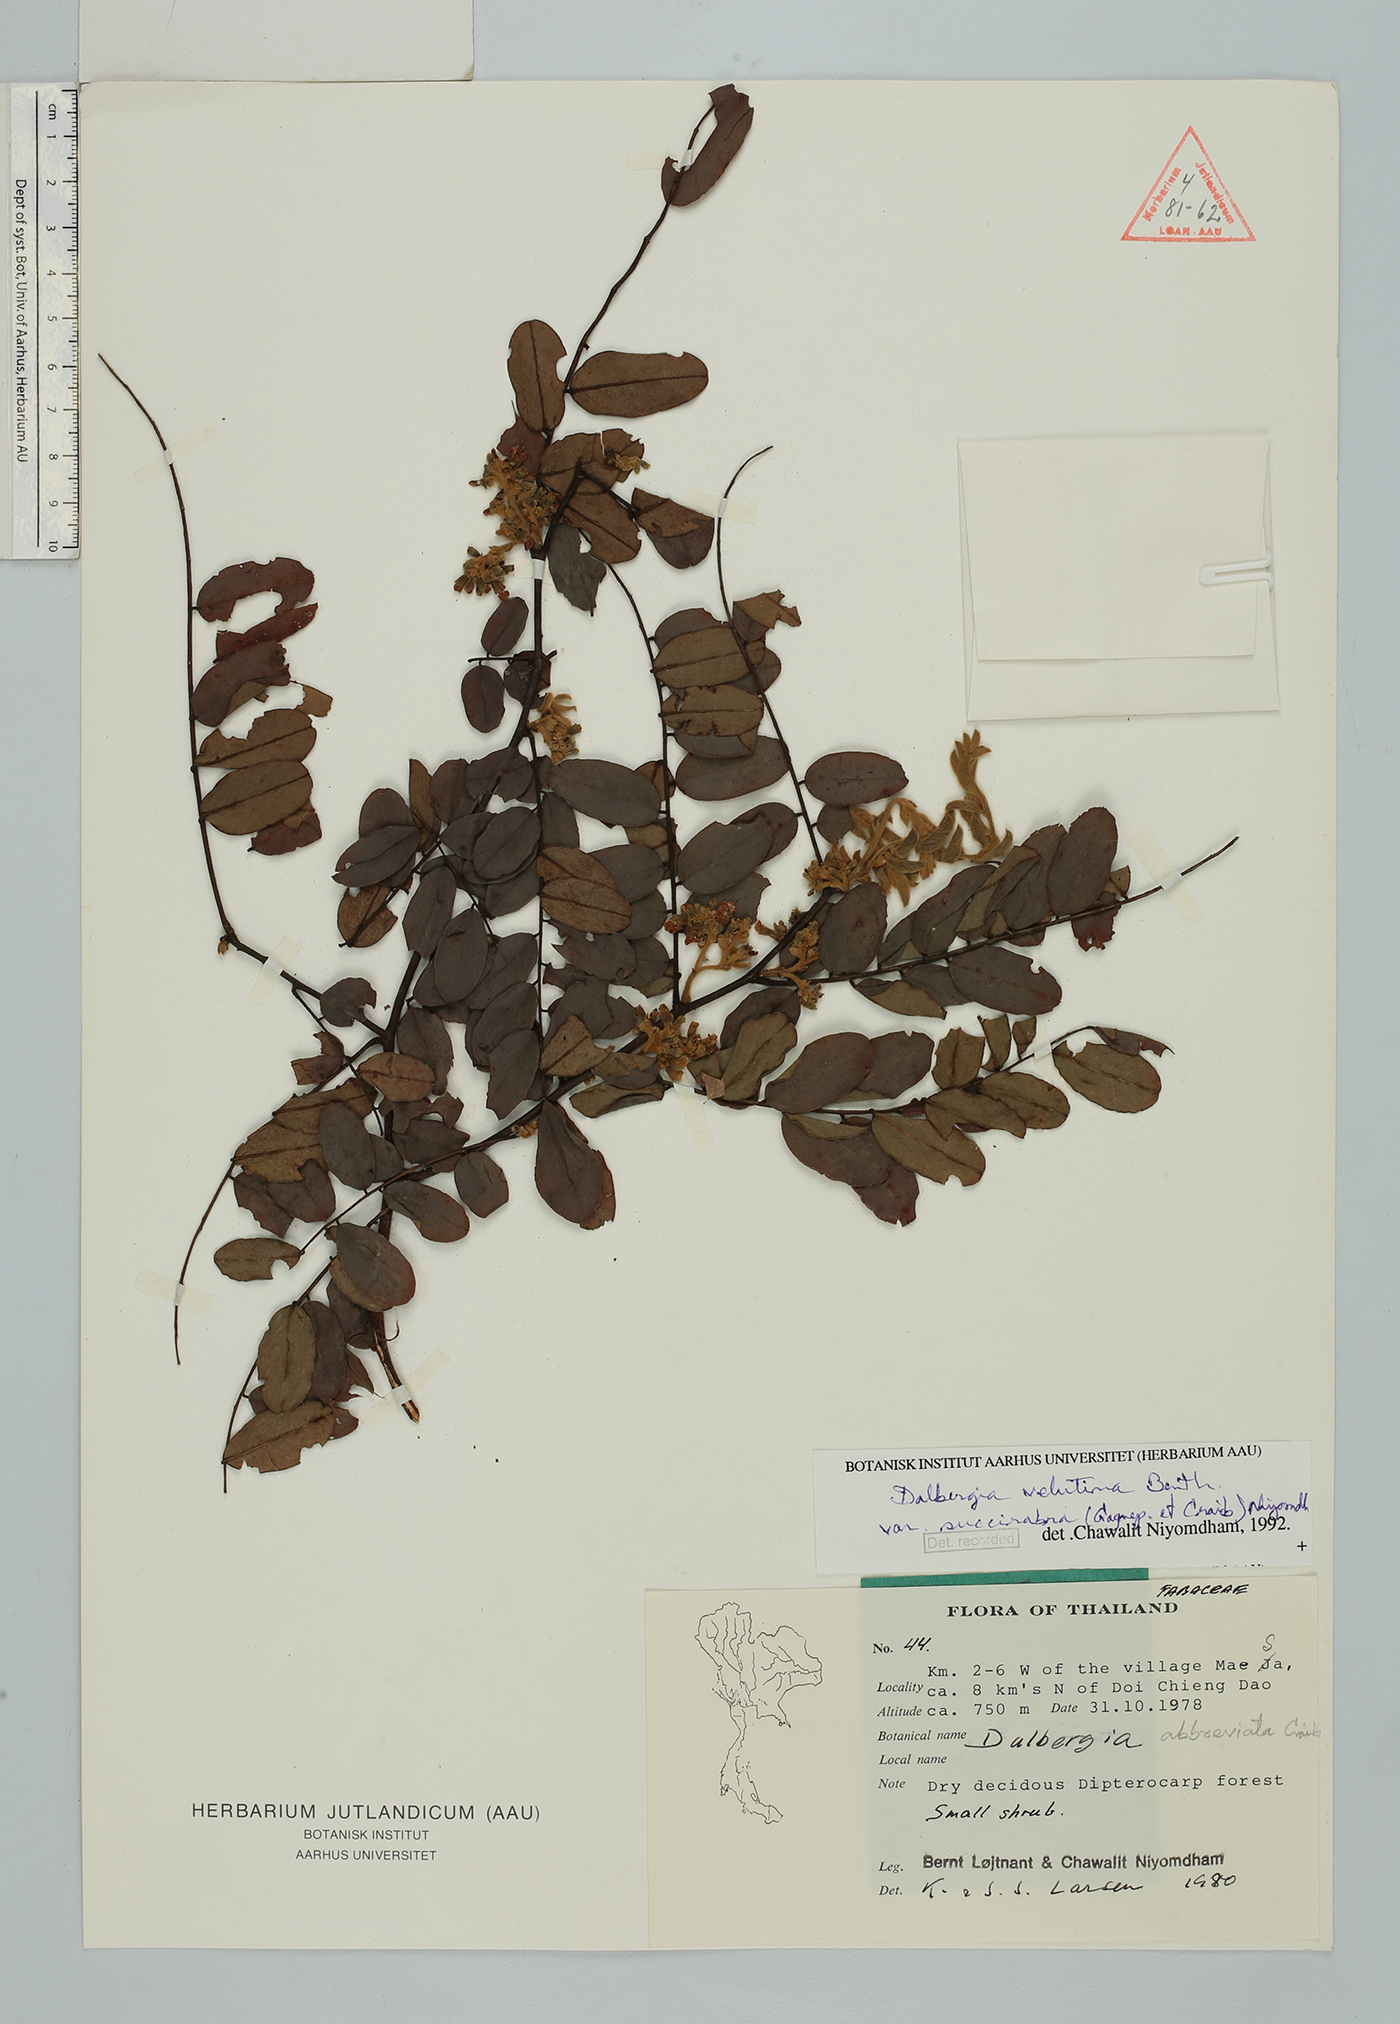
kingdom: Plantae
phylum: Tracheophyta
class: Magnoliopsida
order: Fabales
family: Fabaceae
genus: Dalbergia
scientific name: Dalbergia velutina
